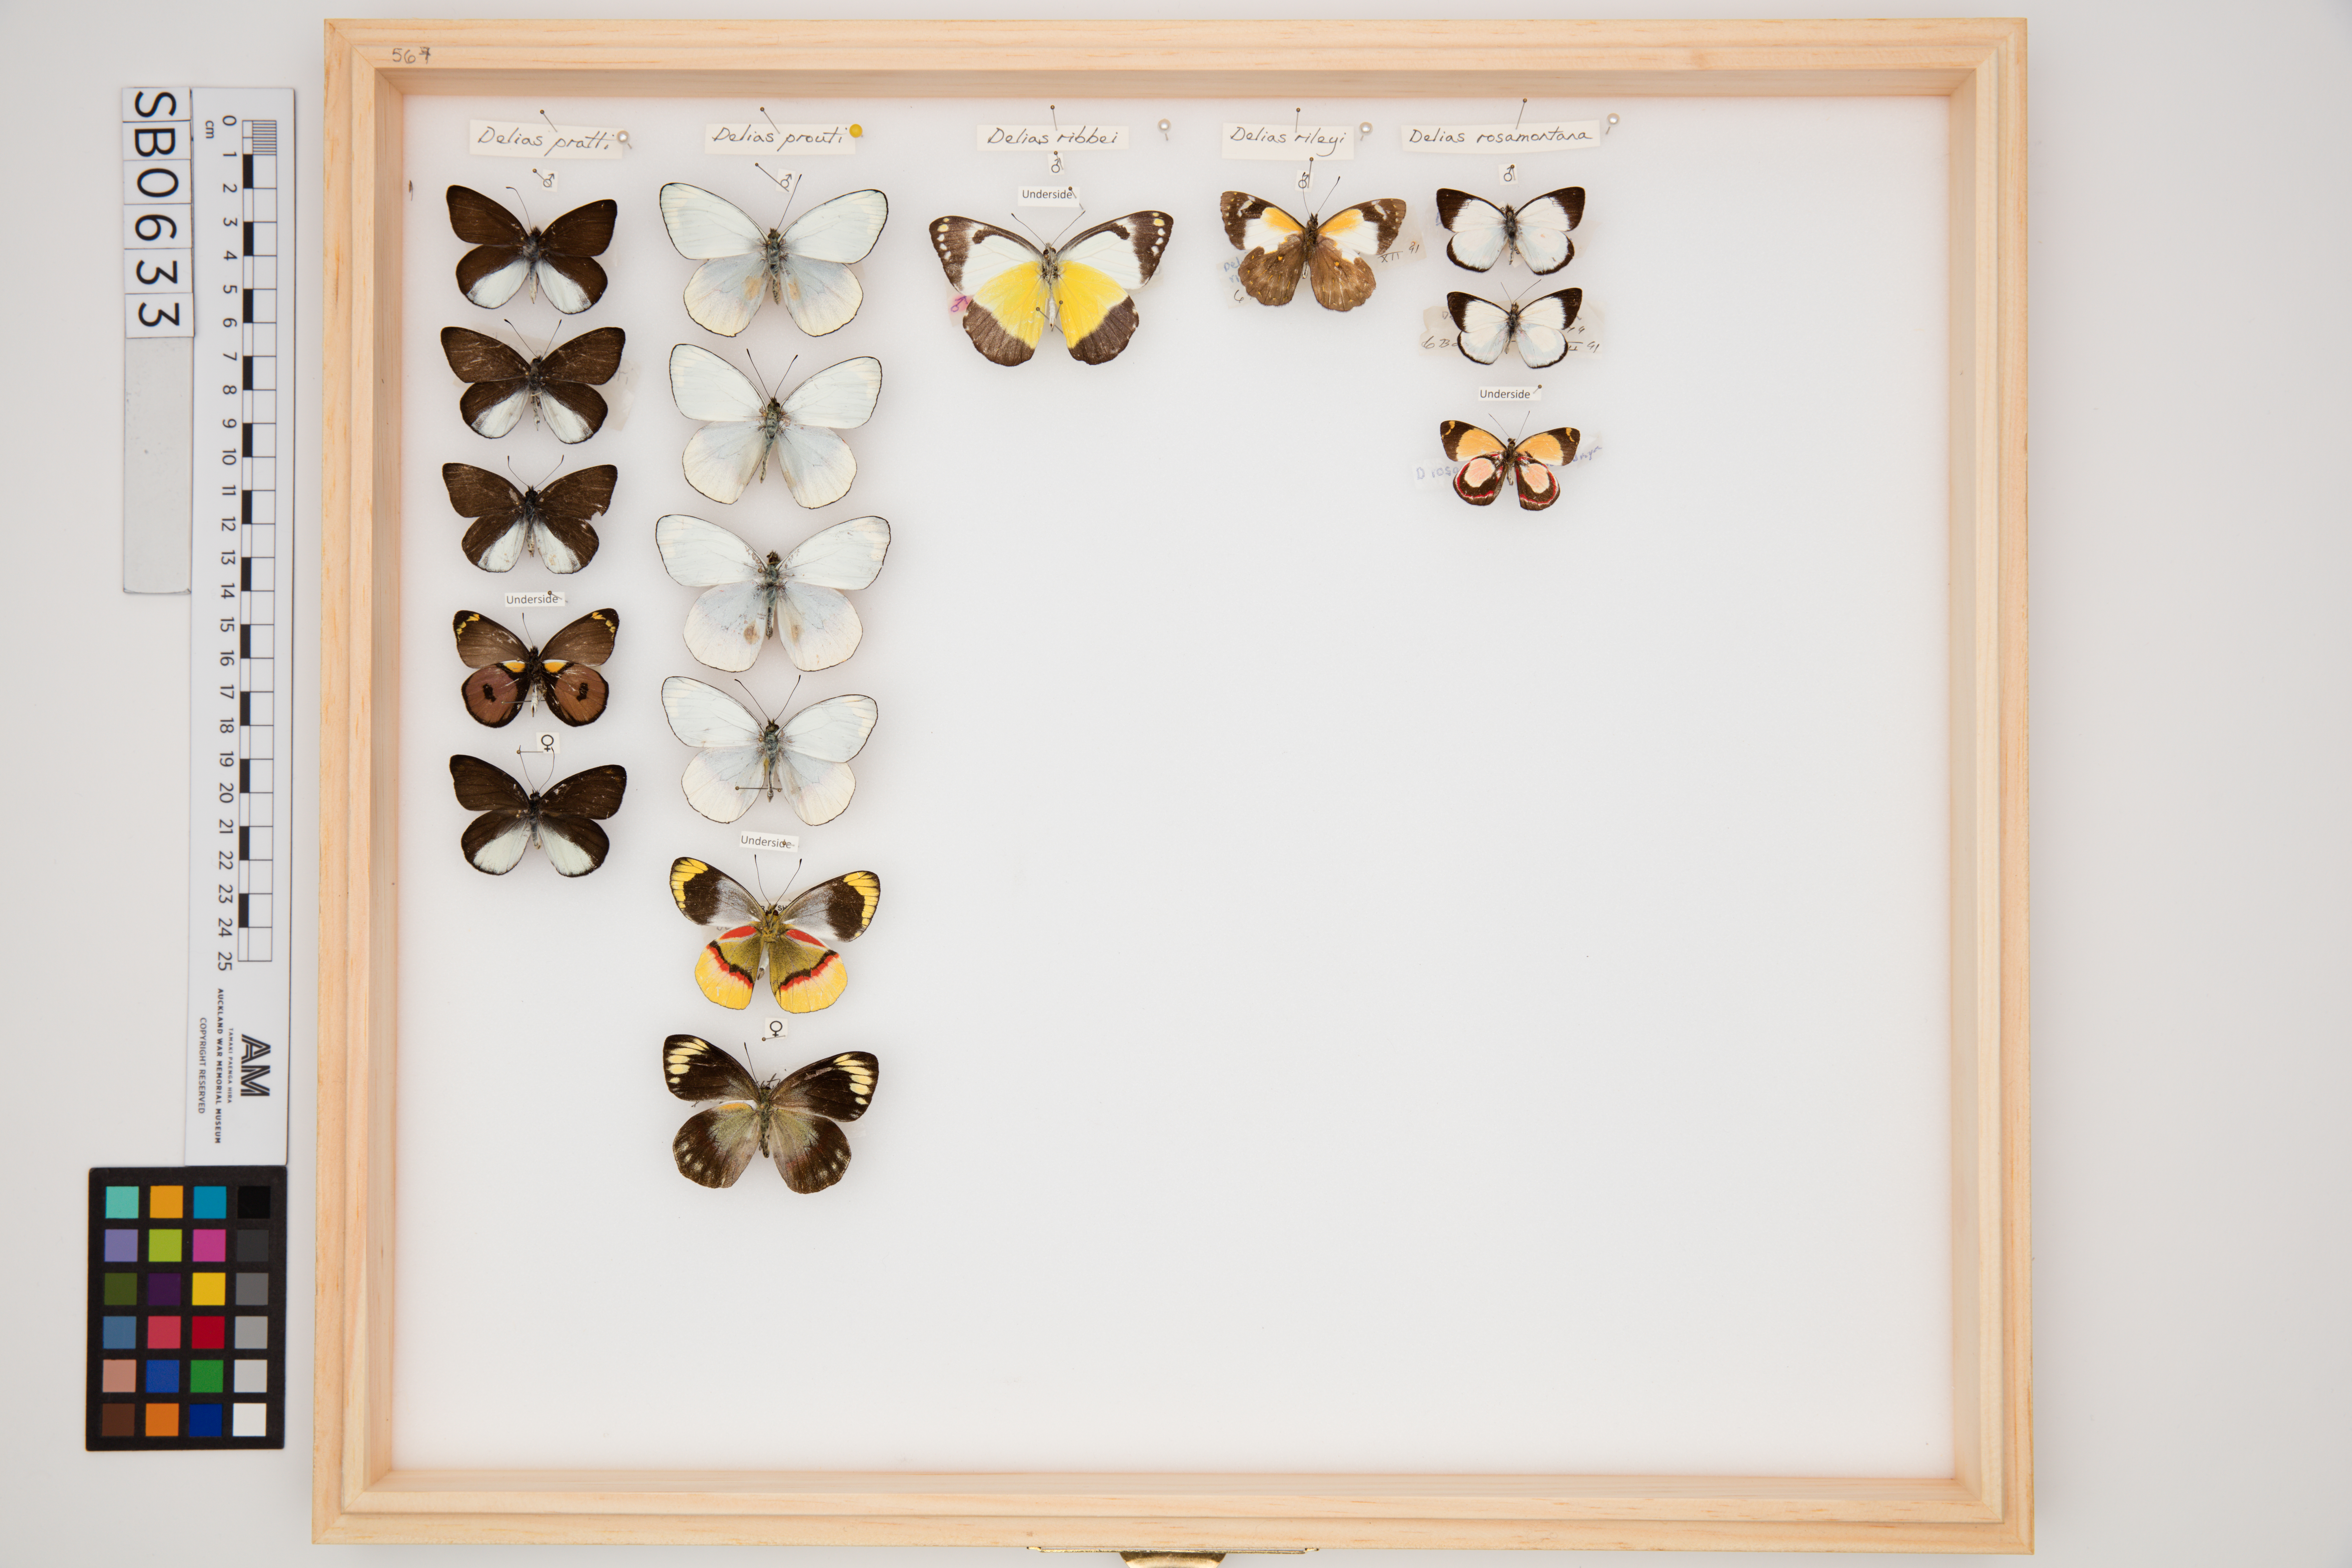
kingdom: Animalia
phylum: Arthropoda
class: Insecta
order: Lepidoptera
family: Pieridae
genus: Delias
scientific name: Delias rosamontana
